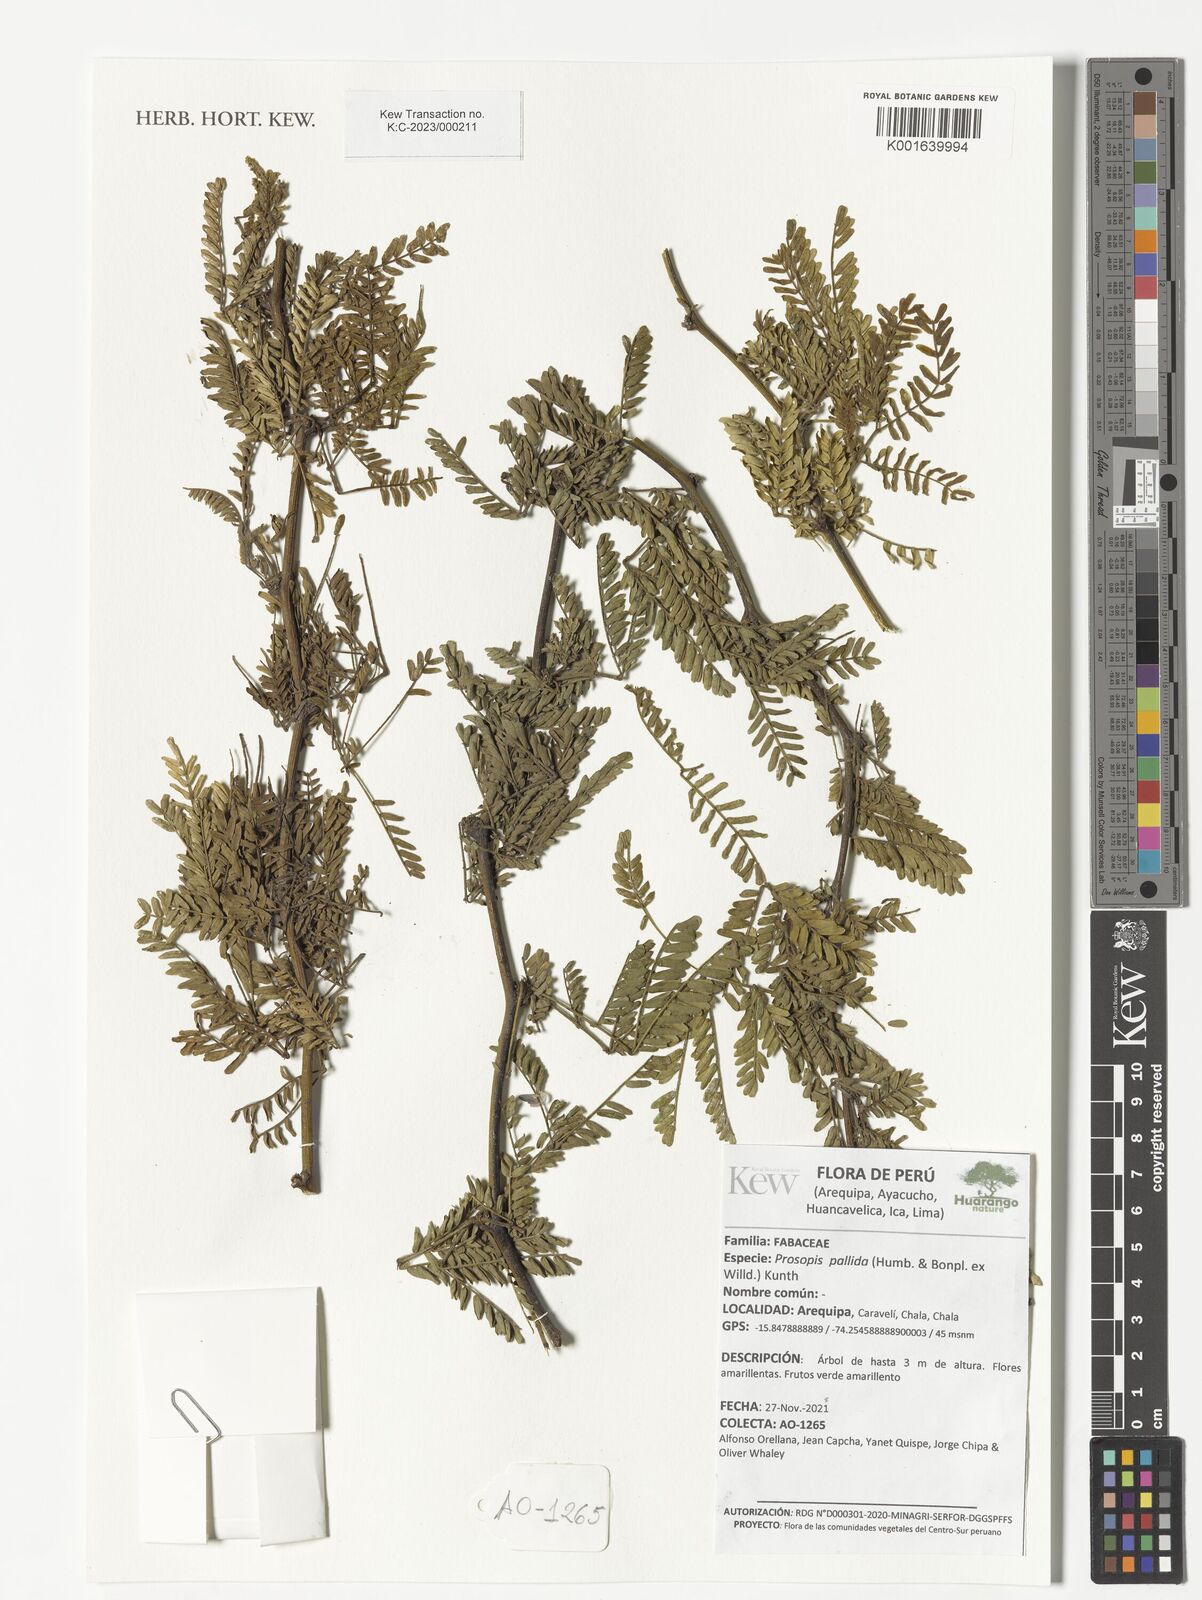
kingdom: Plantae
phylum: Tracheophyta
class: Magnoliopsida
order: Fabales
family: Fabaceae
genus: Prosopis
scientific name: Prosopis pallida
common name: Mesquite
